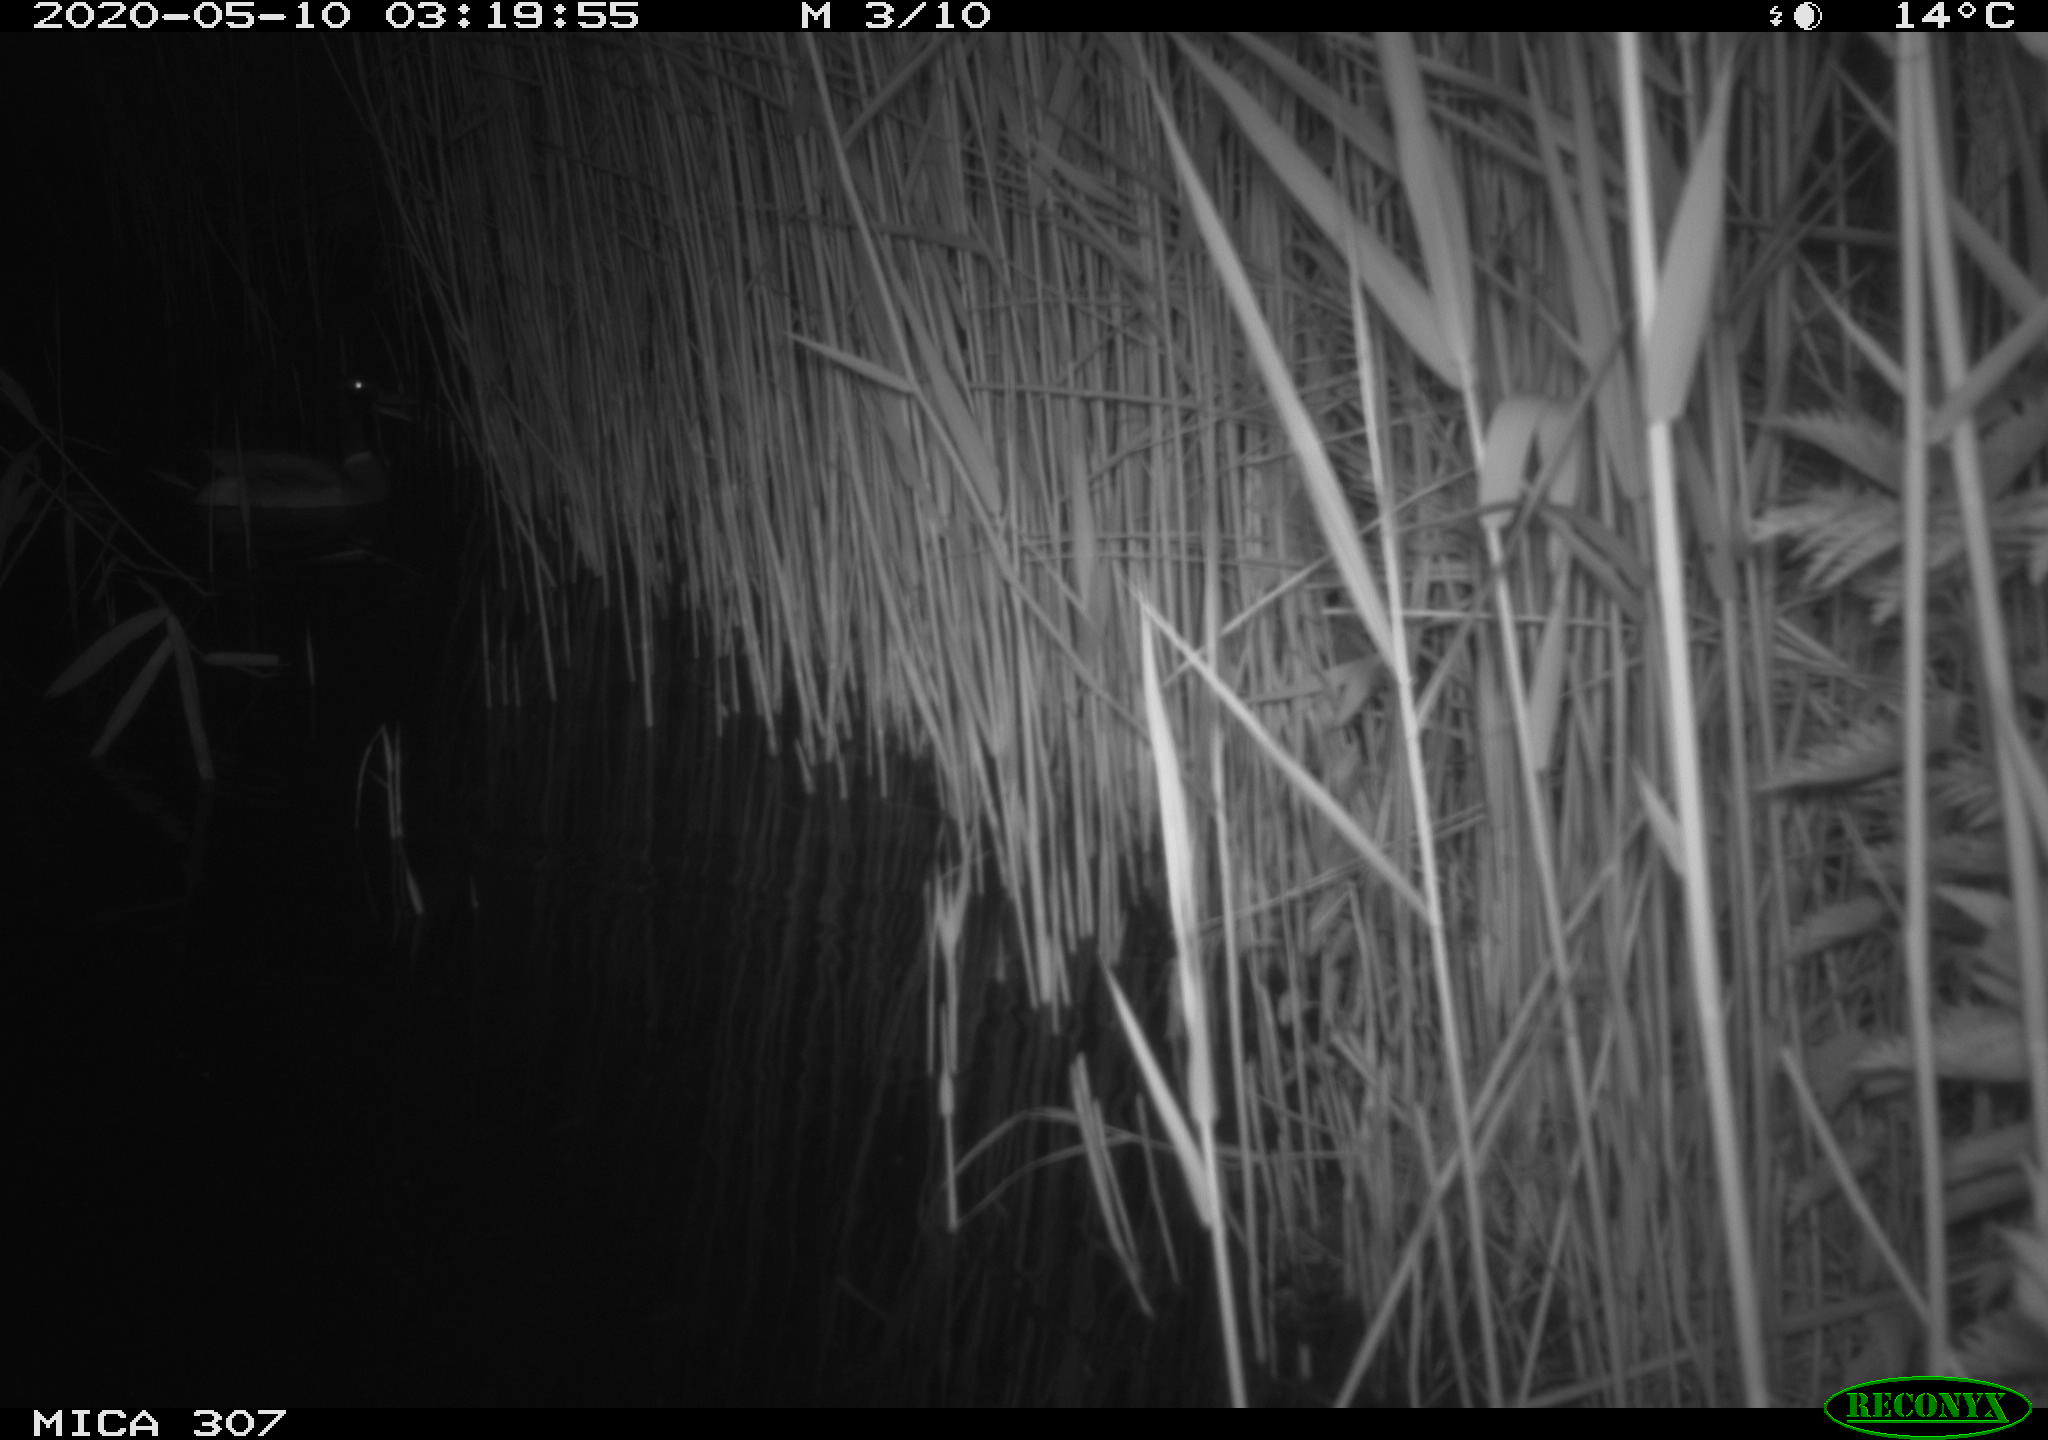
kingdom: Animalia
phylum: Chordata
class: Aves
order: Anseriformes
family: Anatidae
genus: Anas
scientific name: Anas platyrhynchos
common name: Mallard
